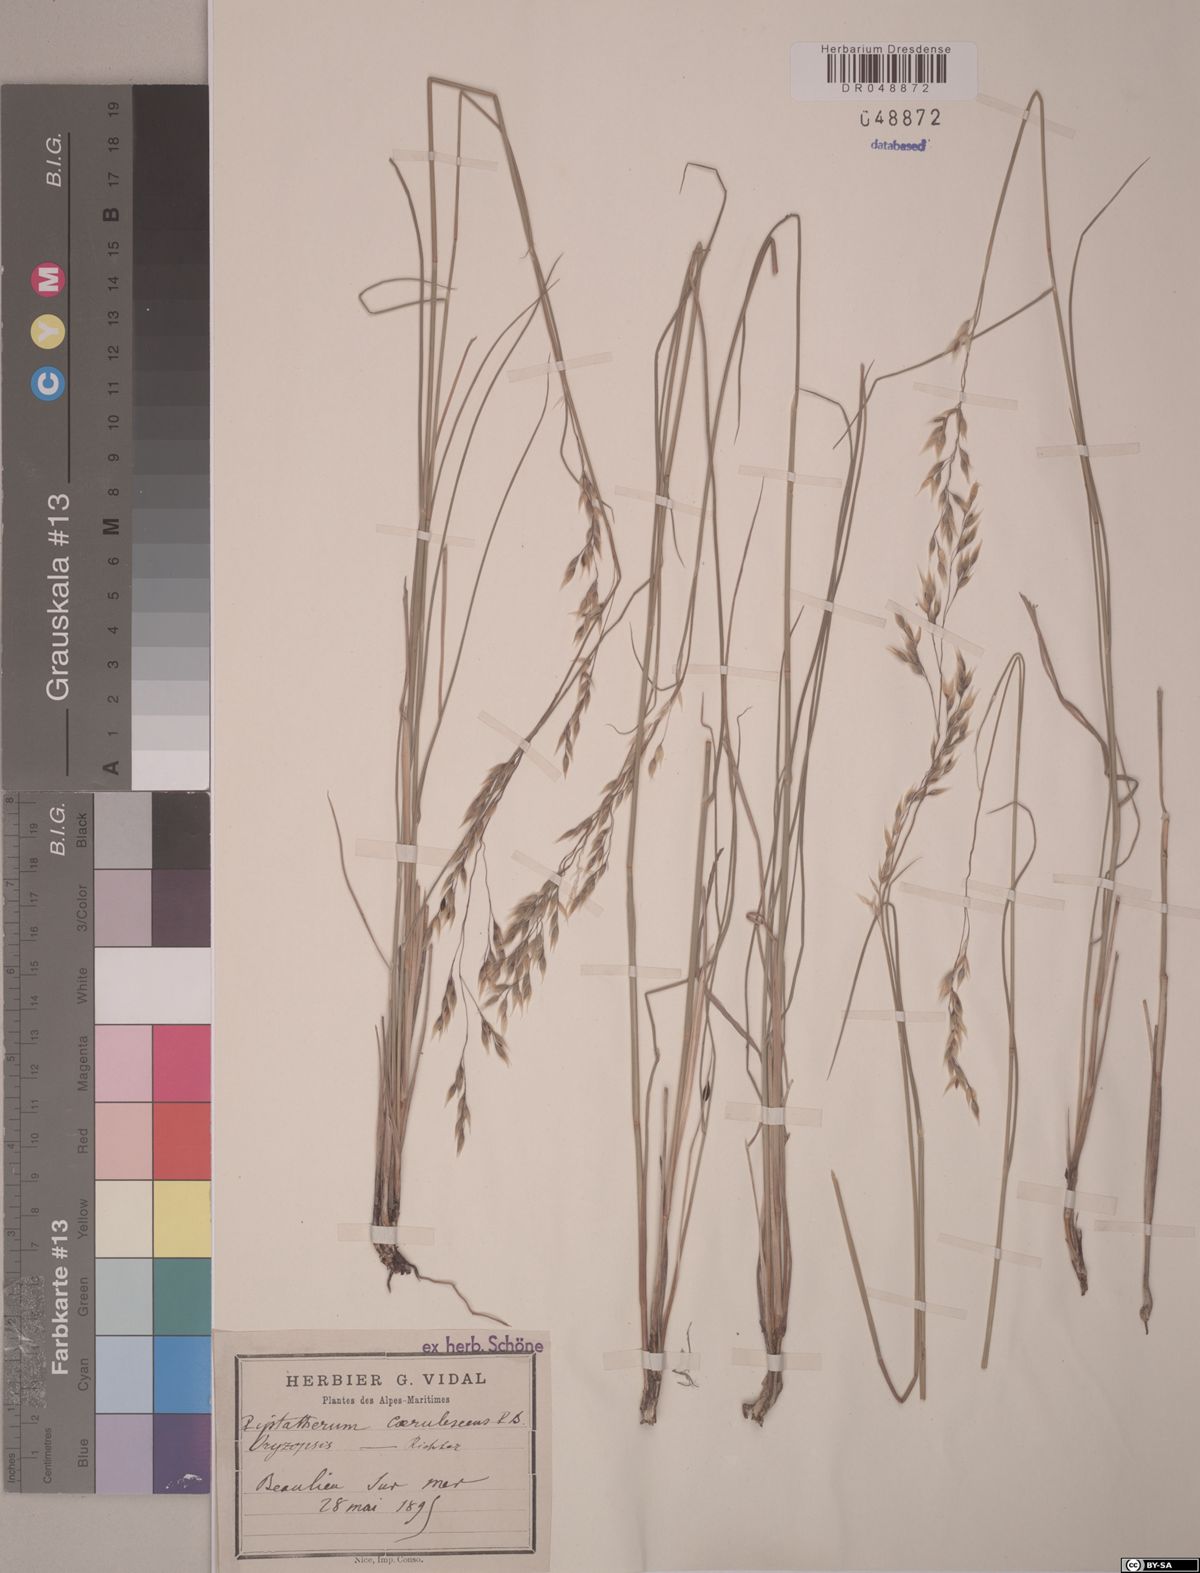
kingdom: Plantae
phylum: Tracheophyta
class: Liliopsida
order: Poales
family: Poaceae
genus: Piptatherum
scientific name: Piptatherum coerulescens
